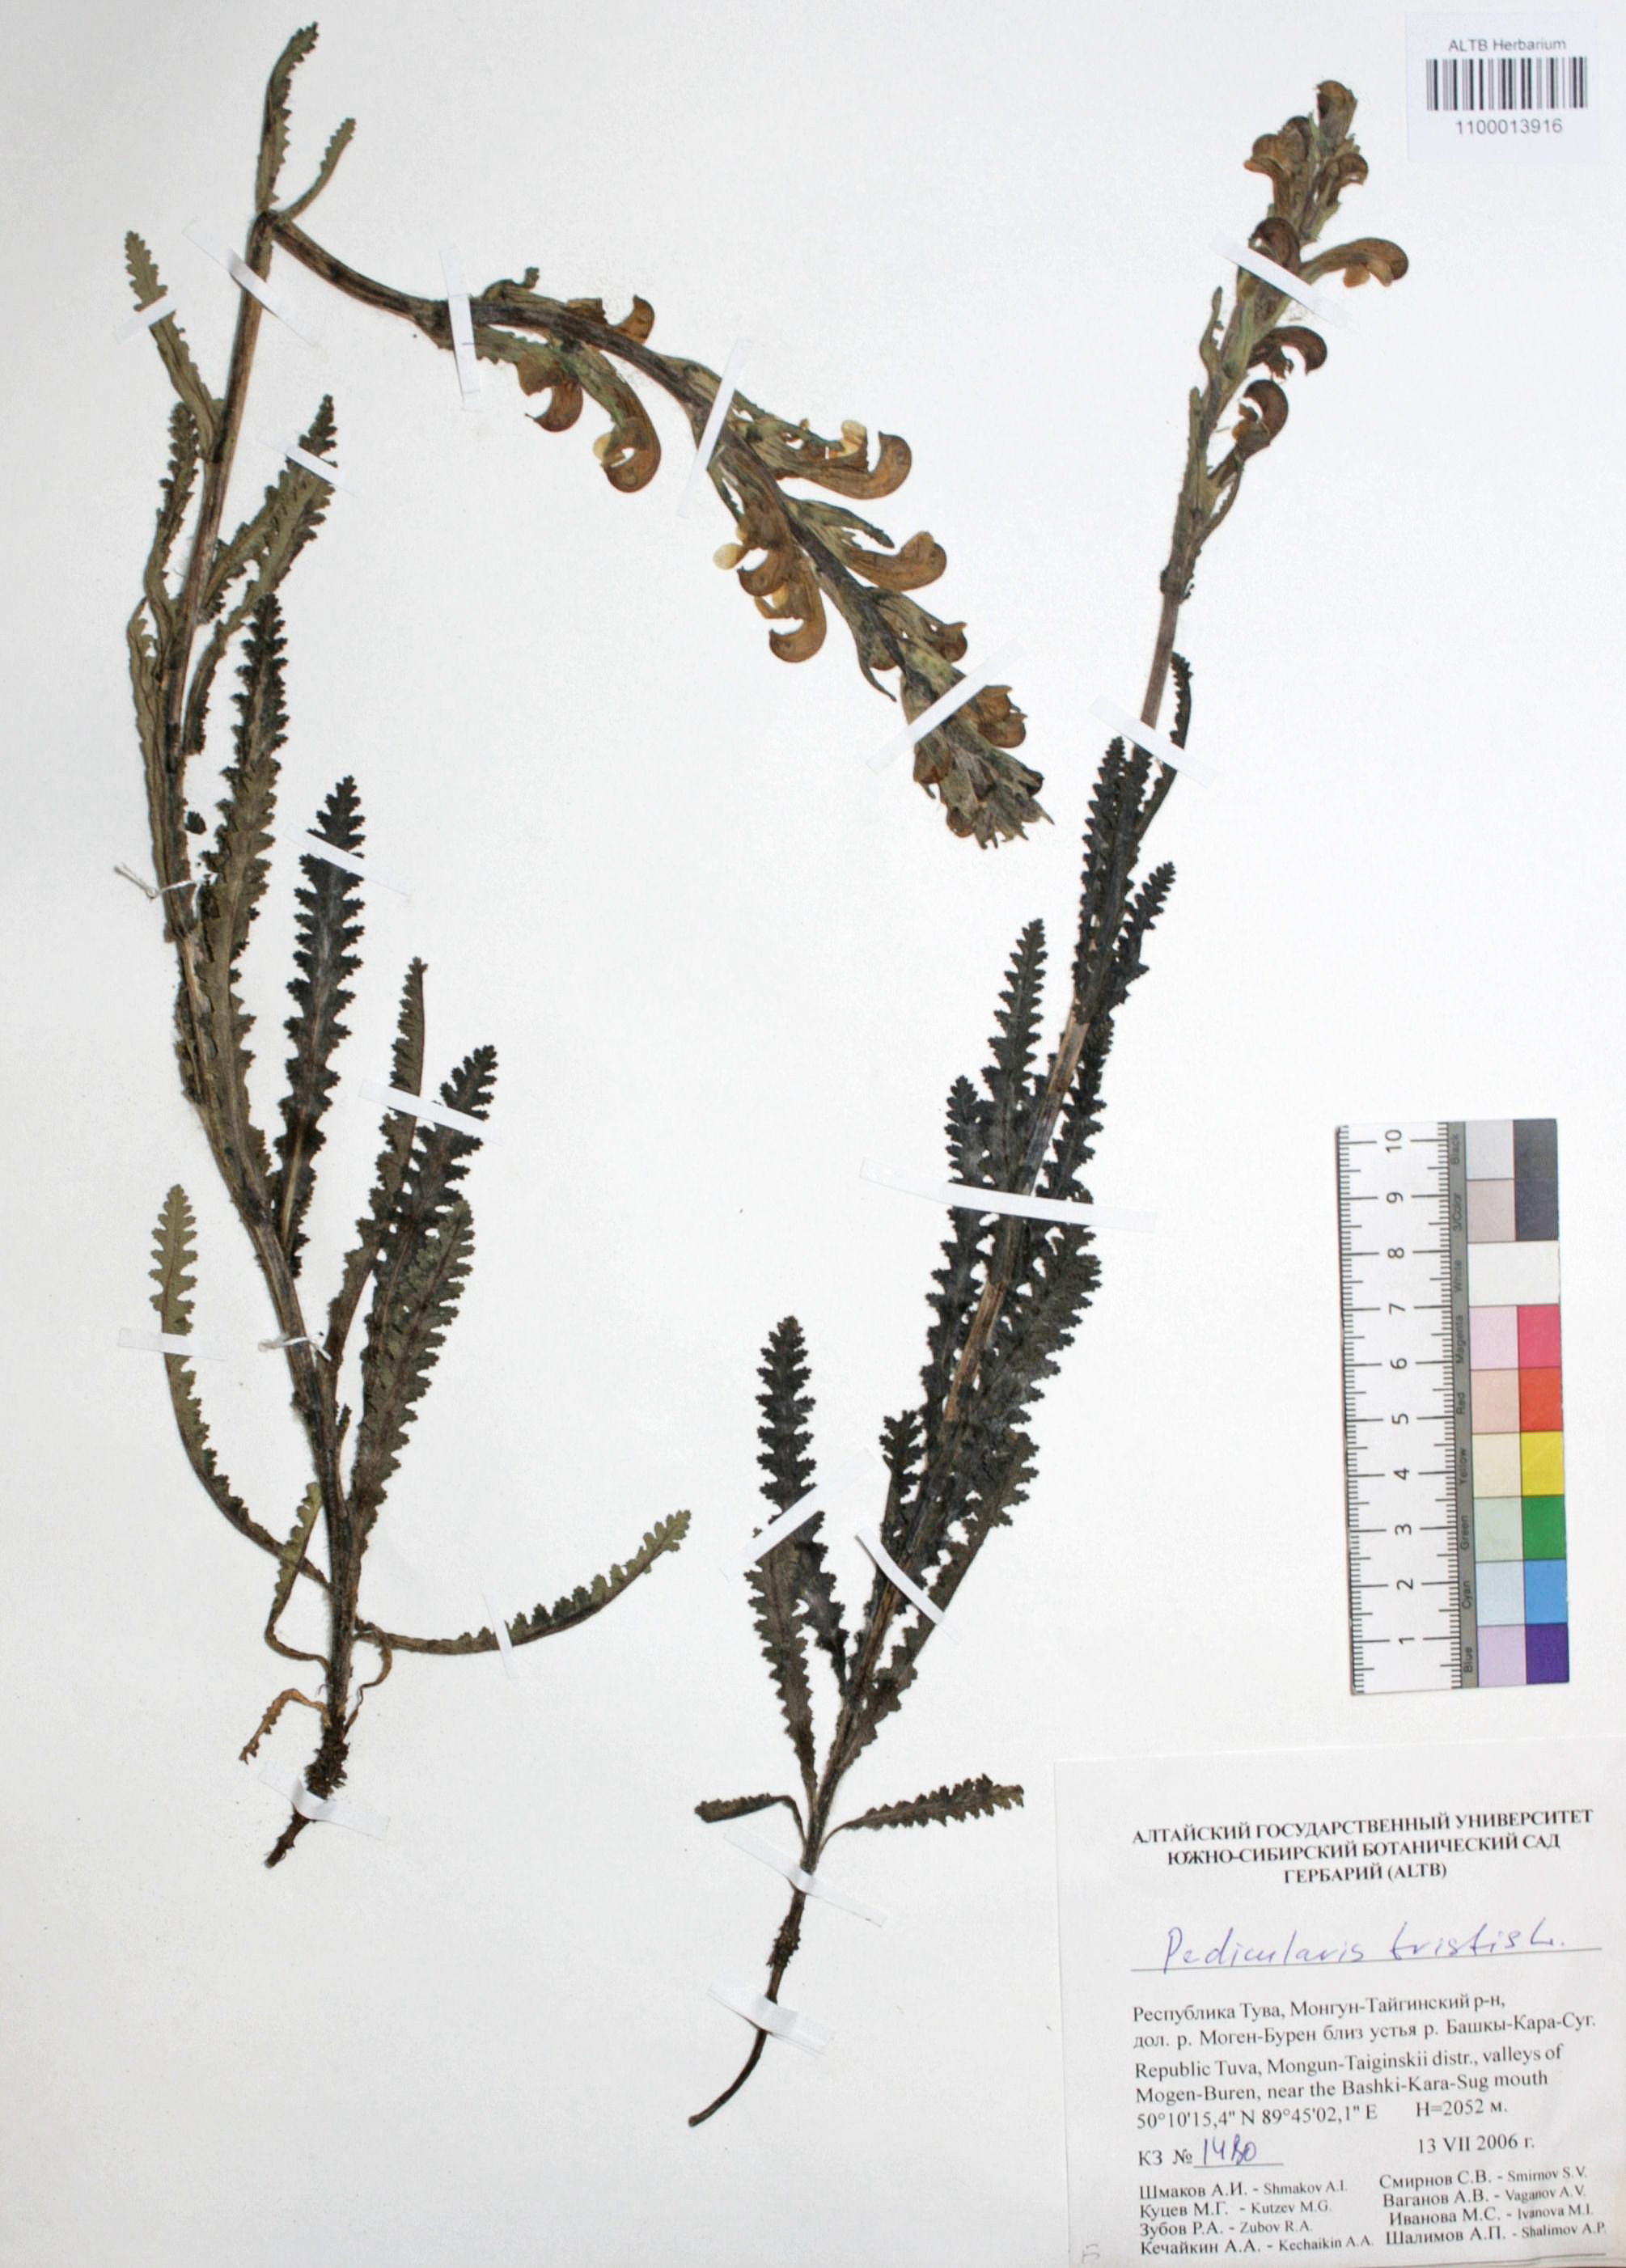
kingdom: Plantae
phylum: Tracheophyta
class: Magnoliopsida
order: Lamiales
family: Orobanchaceae
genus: Pedicularis
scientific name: Pedicularis tristis
